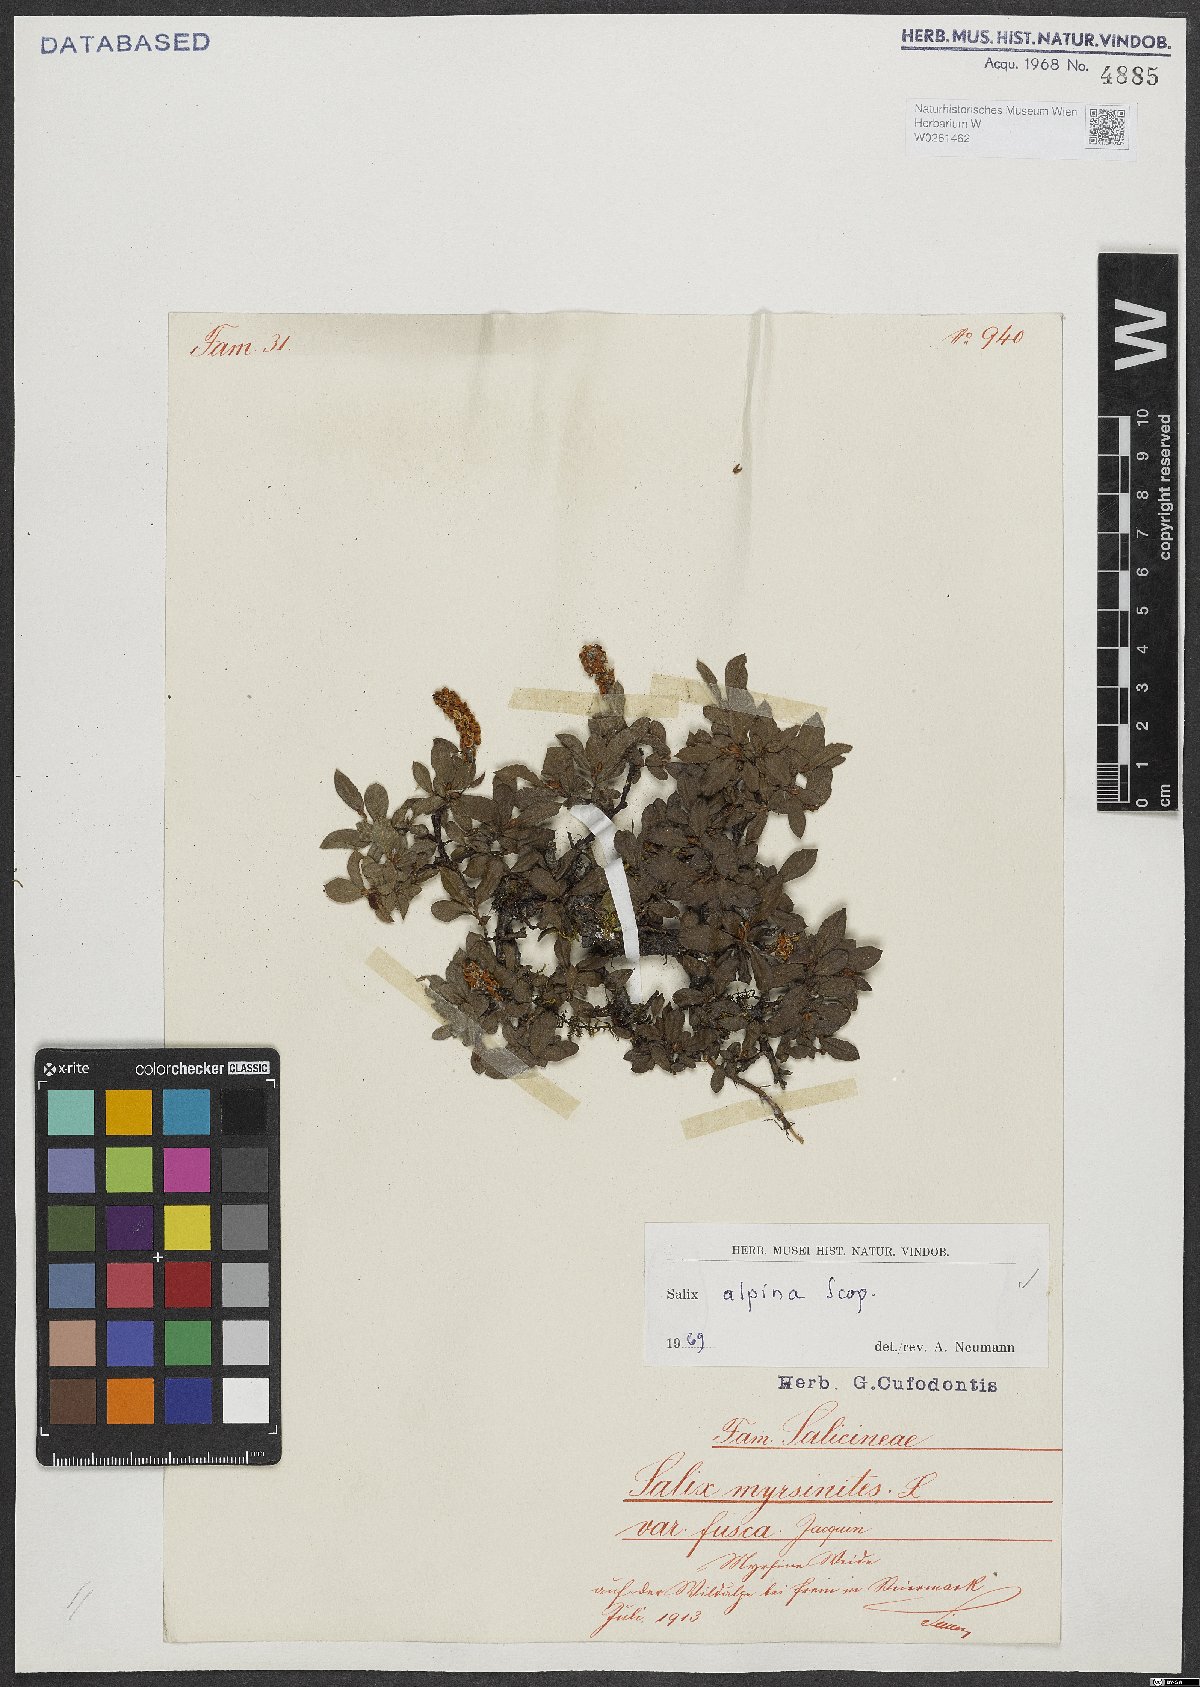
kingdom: Plantae
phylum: Tracheophyta
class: Magnoliopsida
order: Malpighiales
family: Salicaceae
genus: Salix
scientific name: Salix alpina
